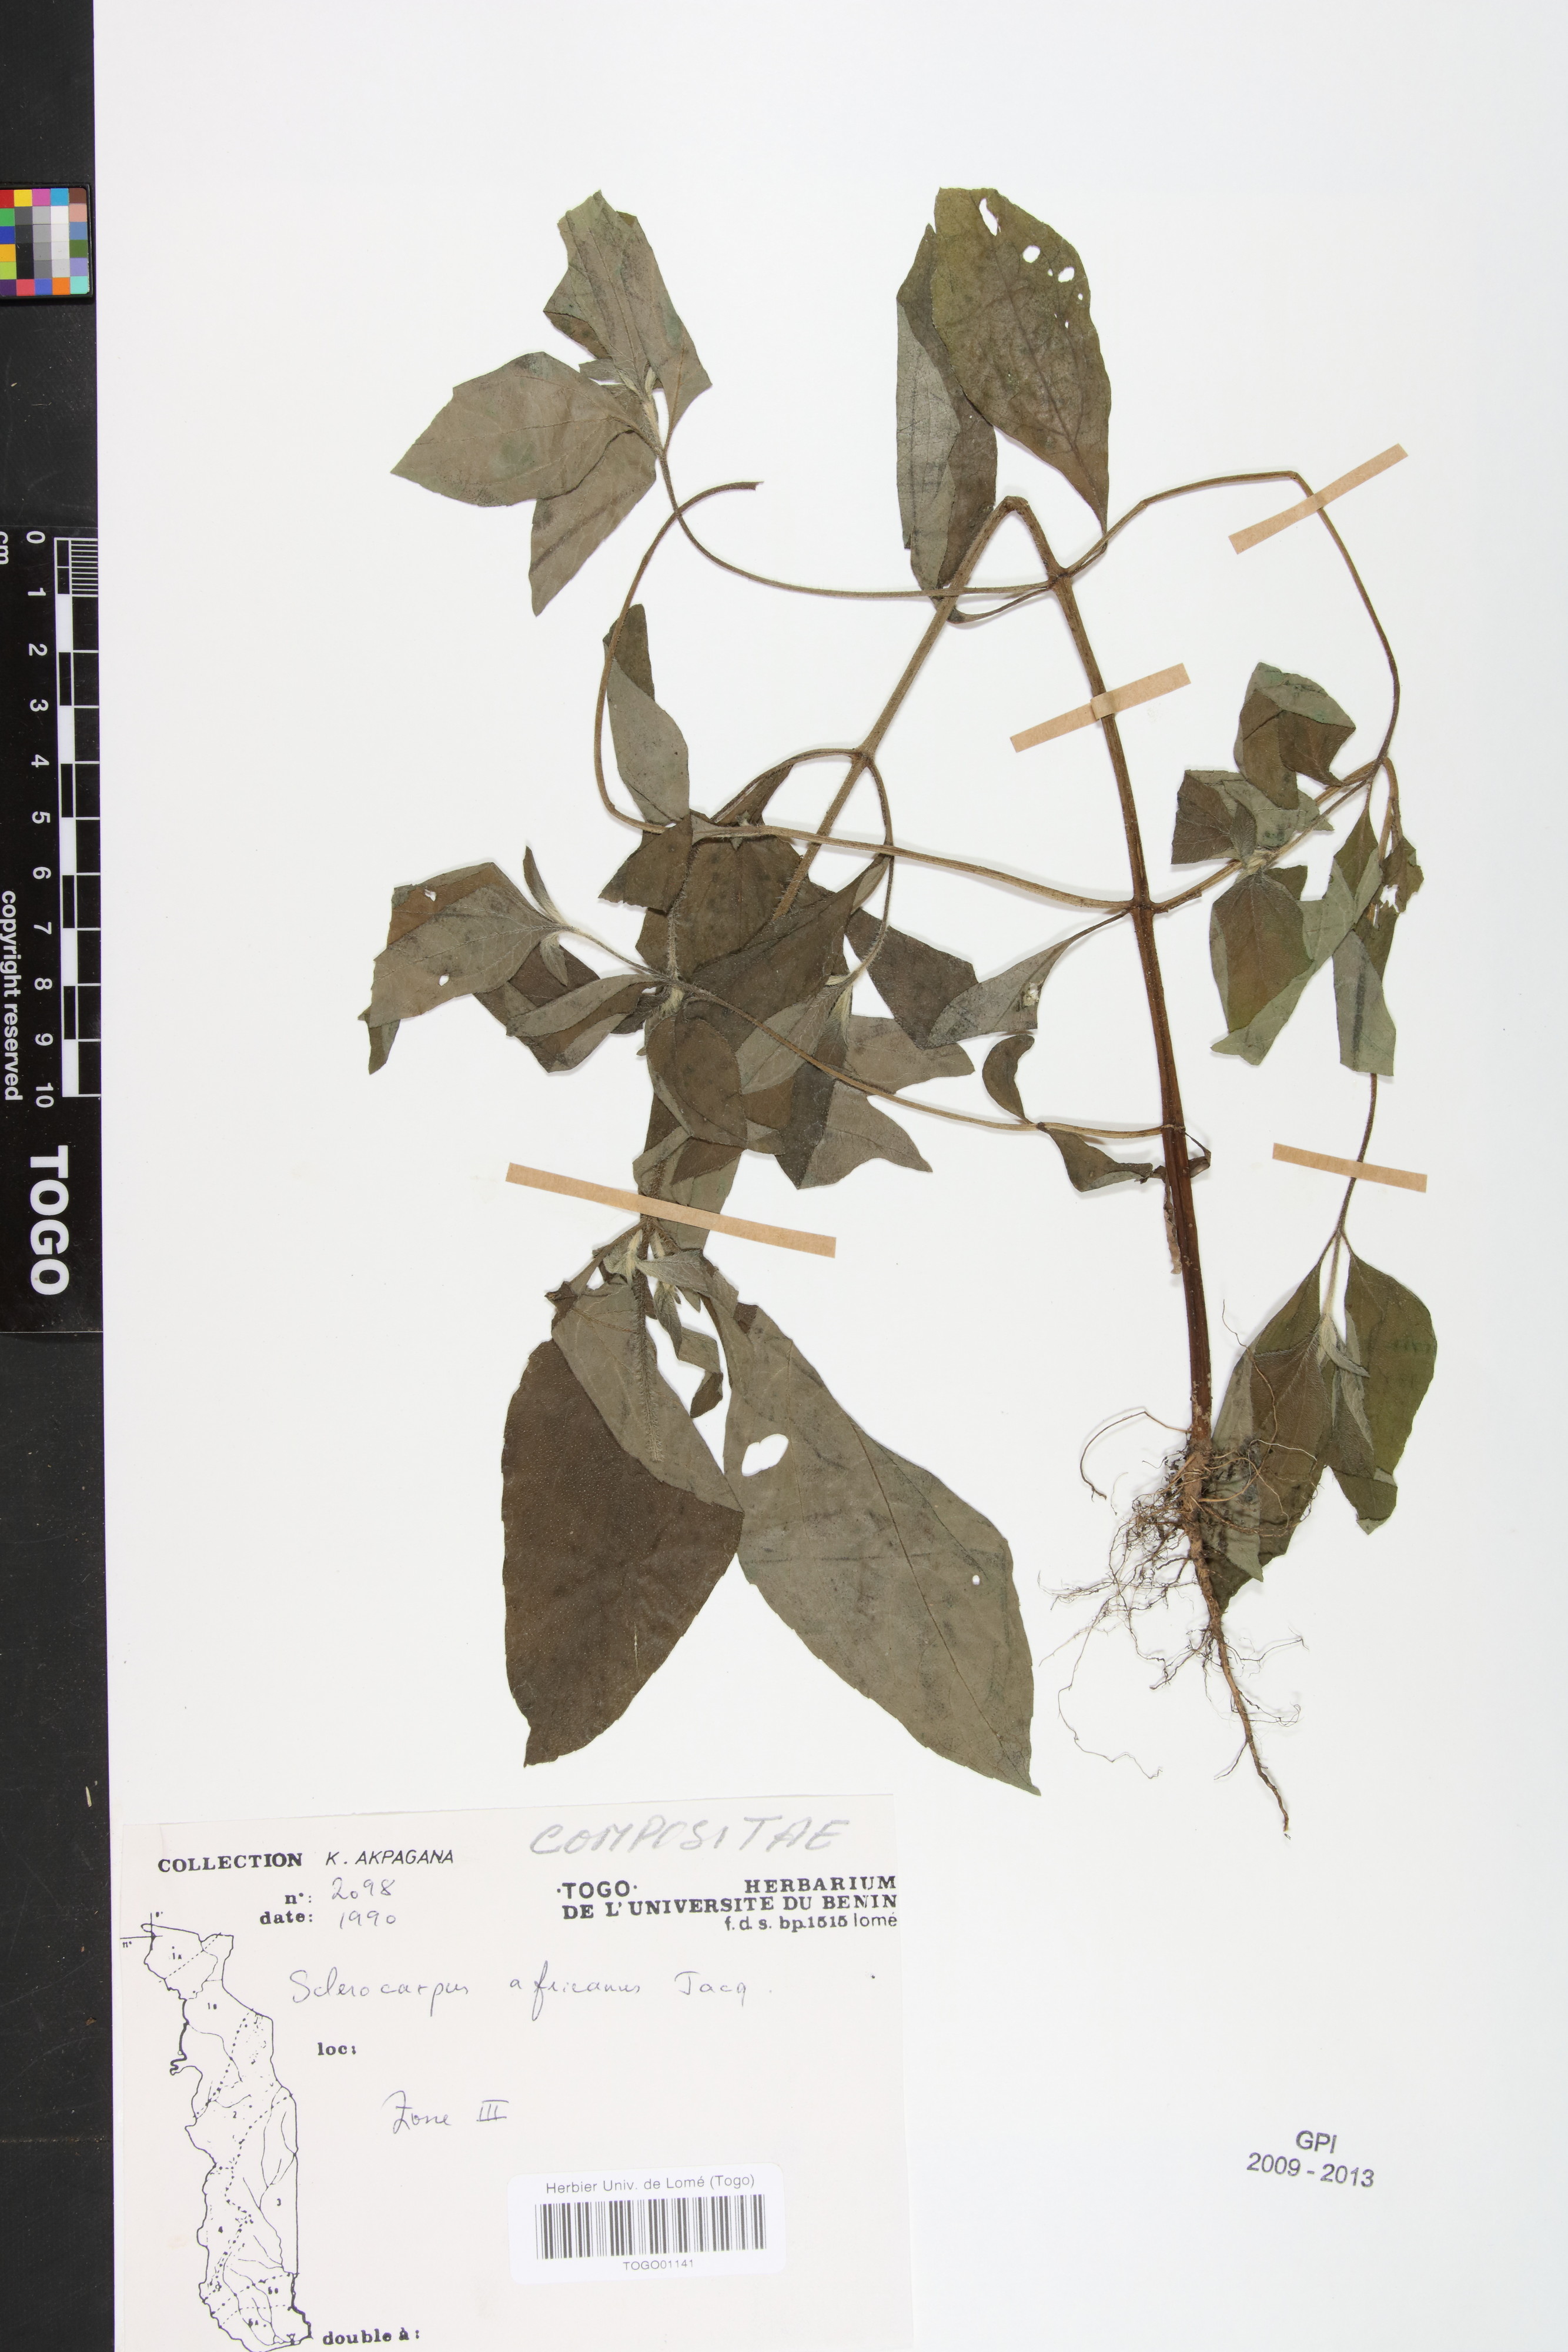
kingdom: Plantae
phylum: Tracheophyta
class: Magnoliopsida
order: Asterales
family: Asteraceae
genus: Sclerocarpus
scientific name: Sclerocarpus africanus
